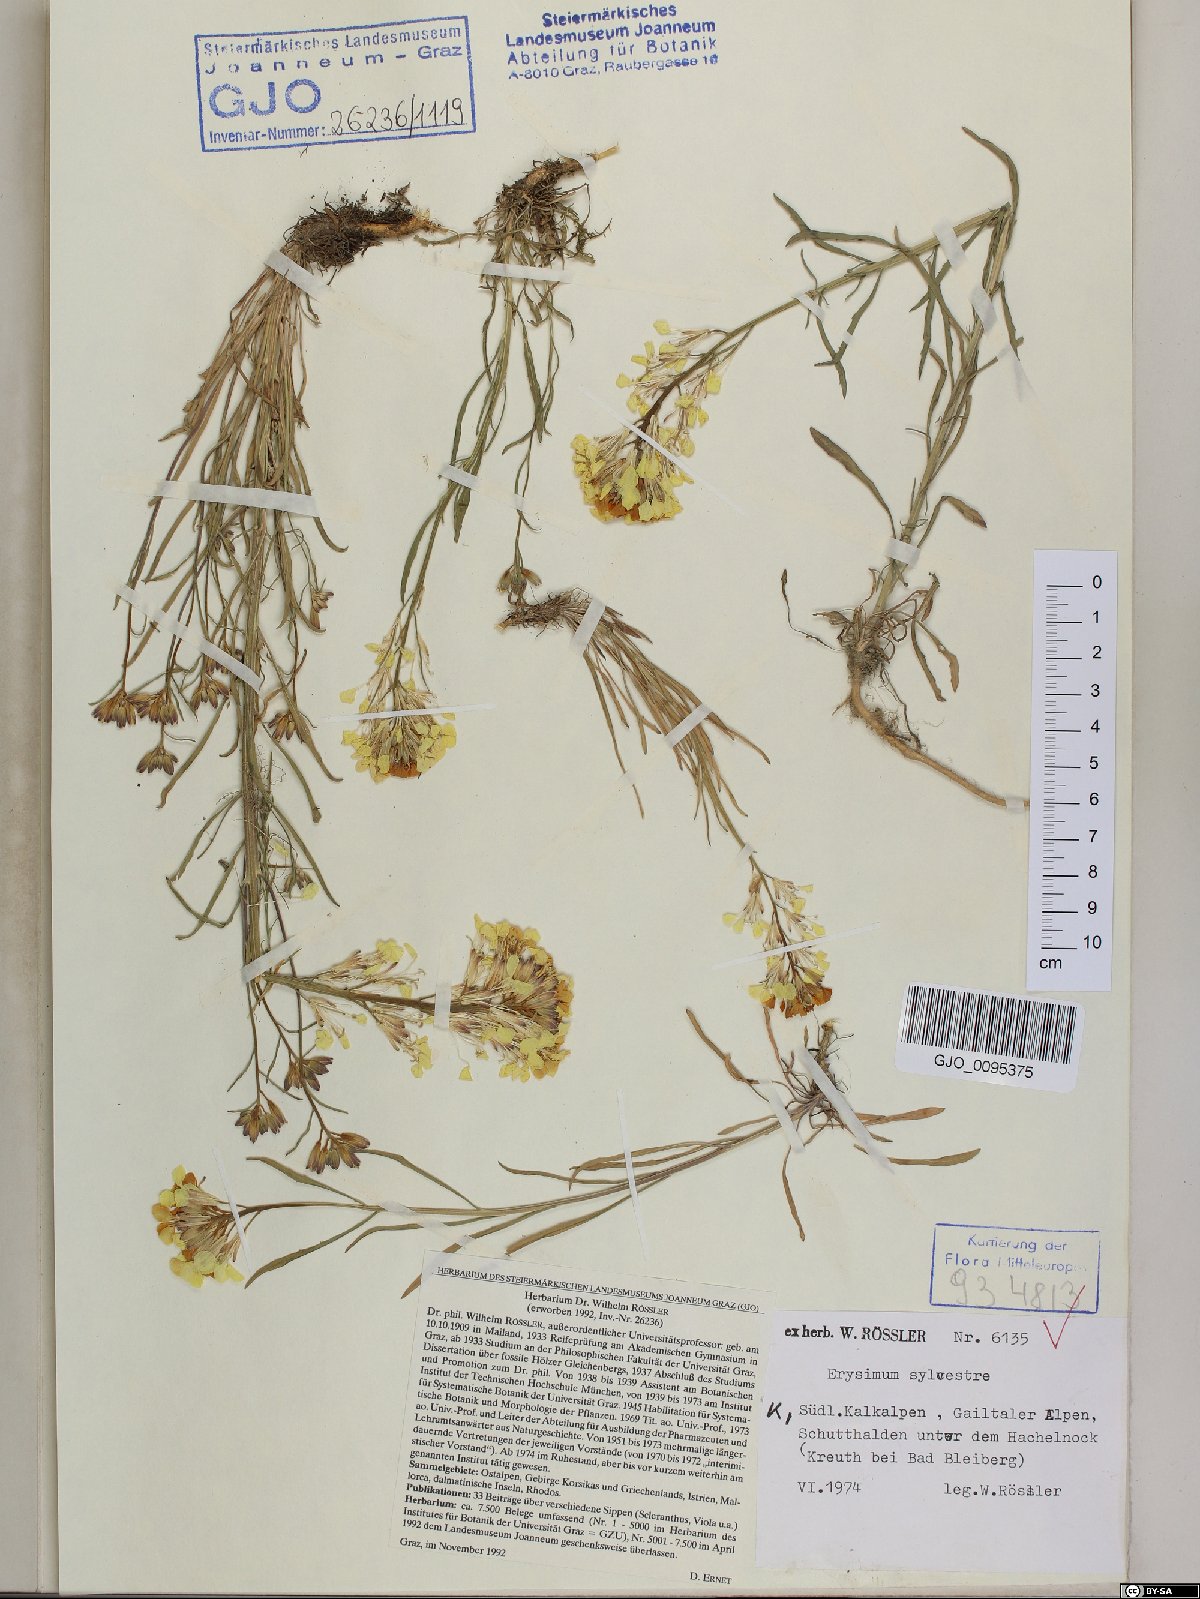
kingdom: Plantae
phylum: Tracheophyta
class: Magnoliopsida
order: Brassicales
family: Brassicaceae
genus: Erysimum
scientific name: Erysimum sylvestre
